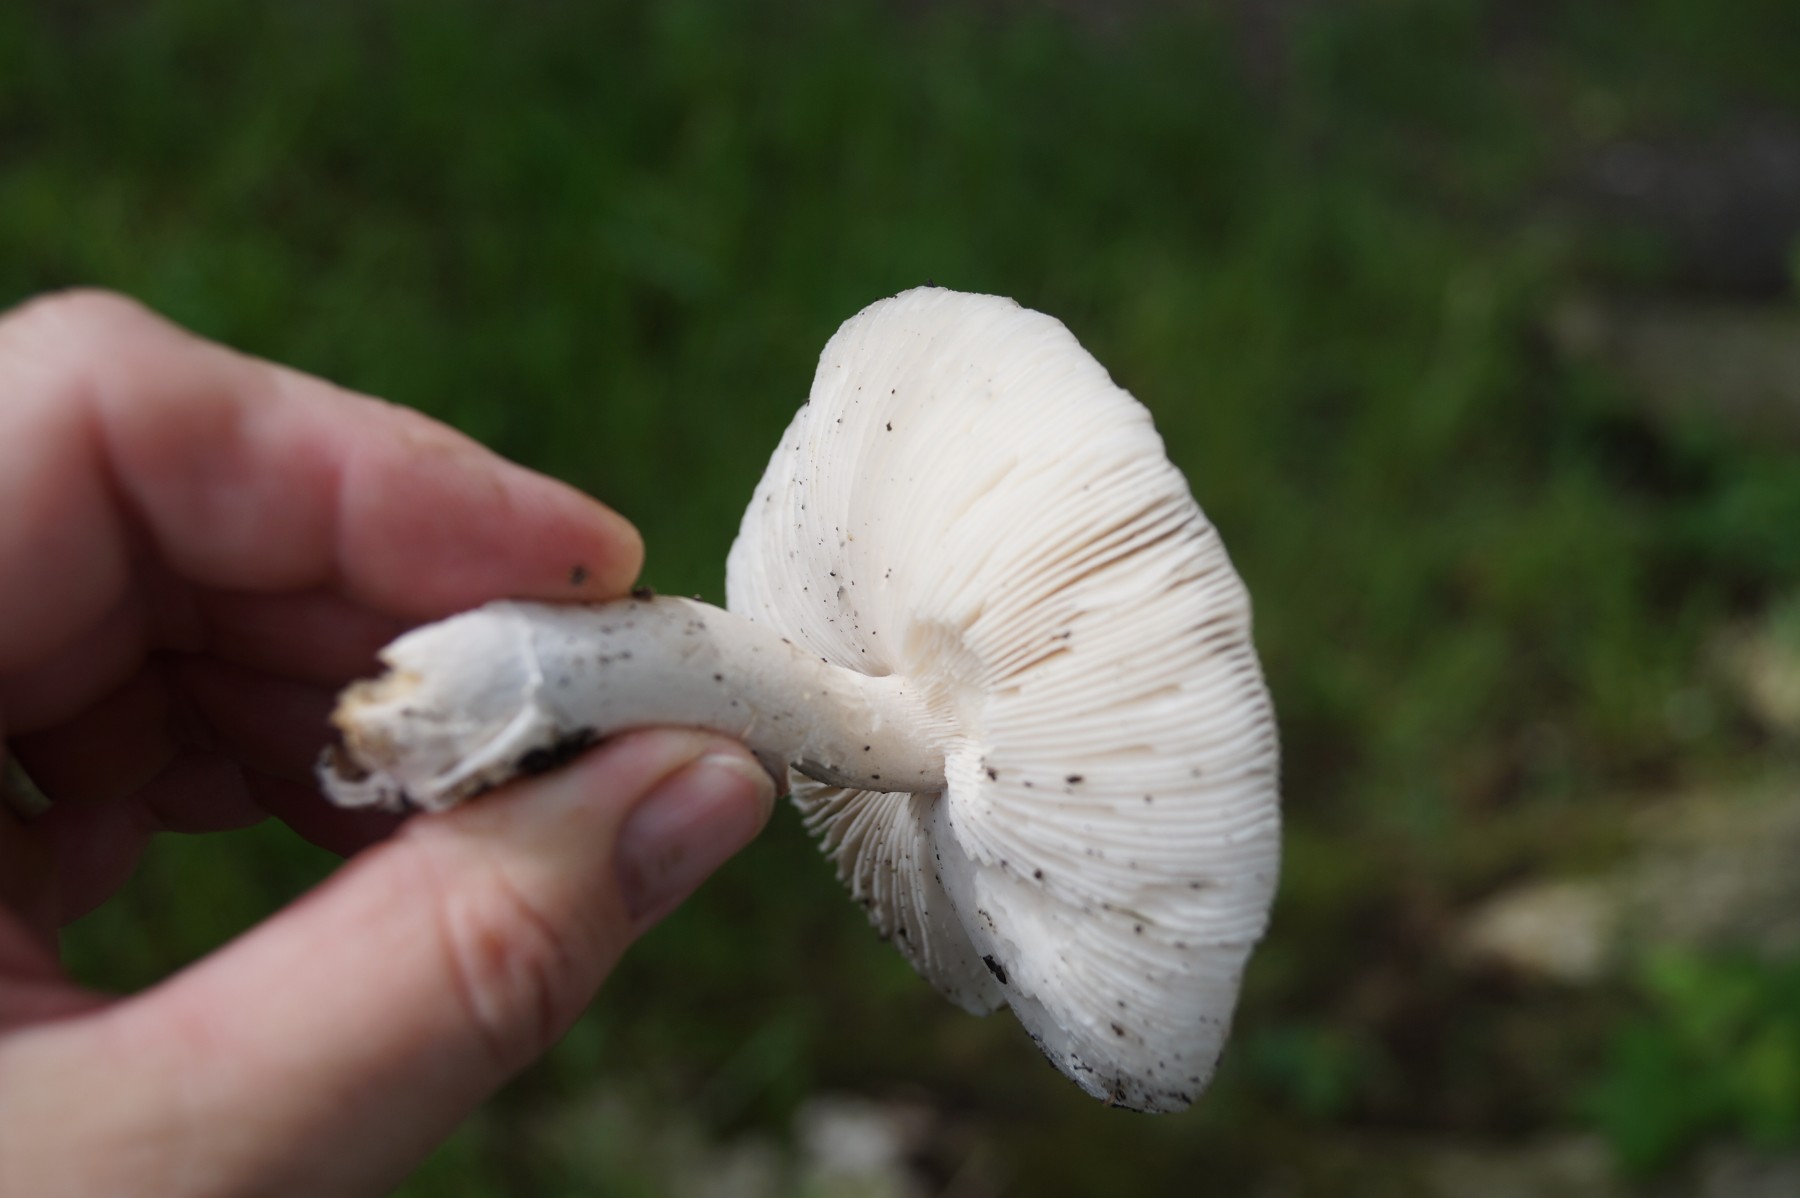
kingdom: Fungi
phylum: Basidiomycota
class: Agaricomycetes
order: Agaricales
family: Amanitaceae
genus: Amanita
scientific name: Amanita
